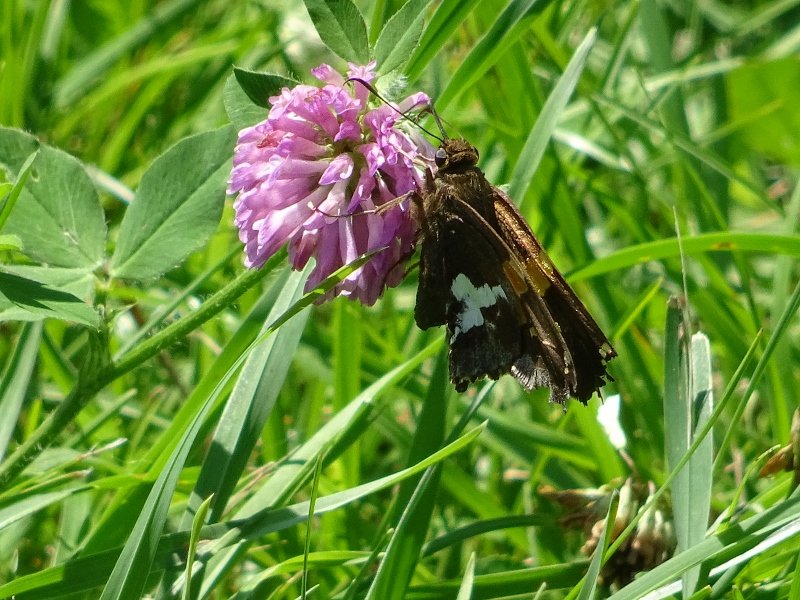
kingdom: Animalia
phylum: Arthropoda
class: Insecta
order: Lepidoptera
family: Hesperiidae
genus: Epargyreus
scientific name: Epargyreus clarus
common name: Silver-spotted Skipper
